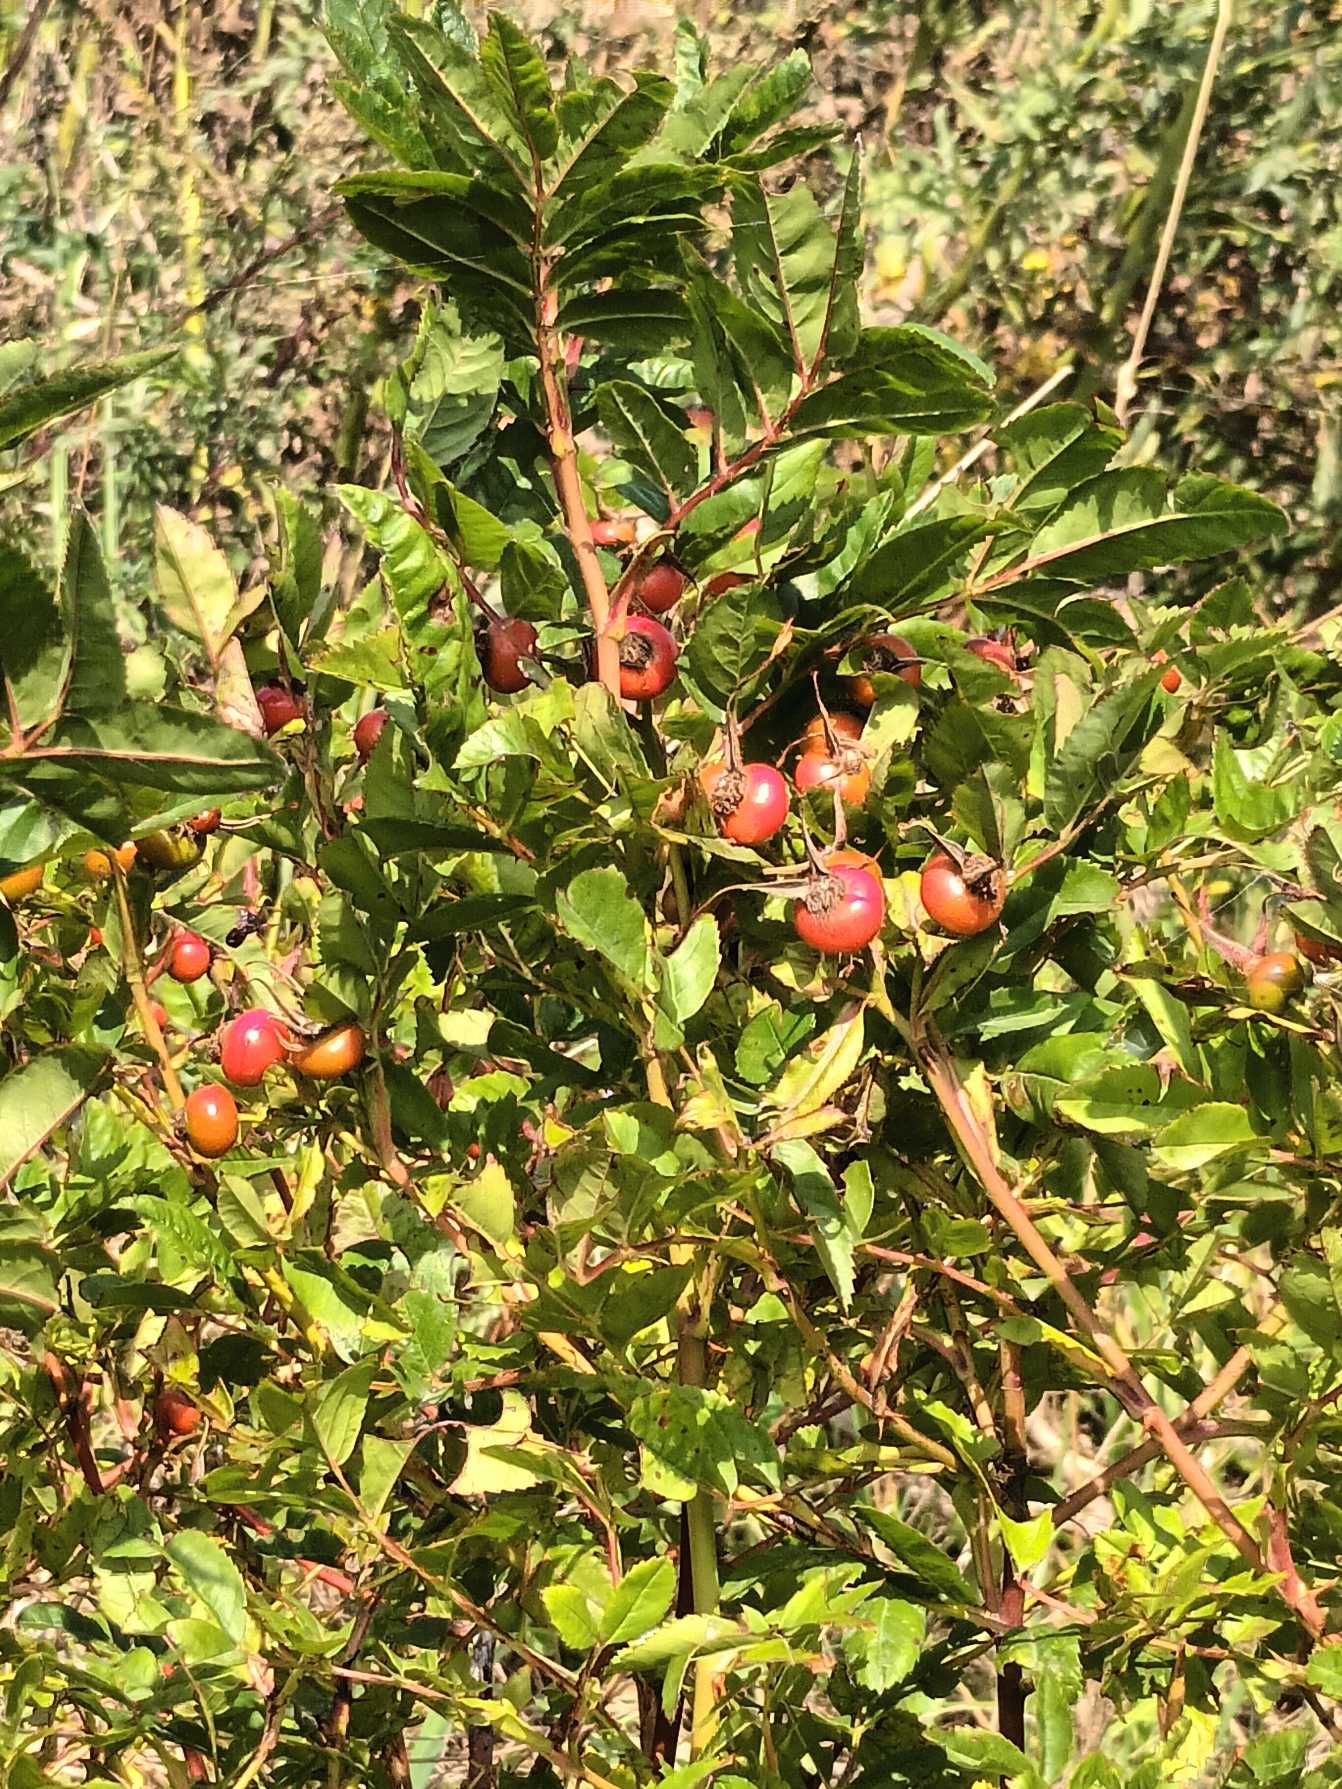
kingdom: Plantae
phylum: Tracheophyta
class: Magnoliopsida
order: Rosales
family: Rosaceae
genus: Rosa
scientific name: Rosa carolina
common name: Glansbladet rose
